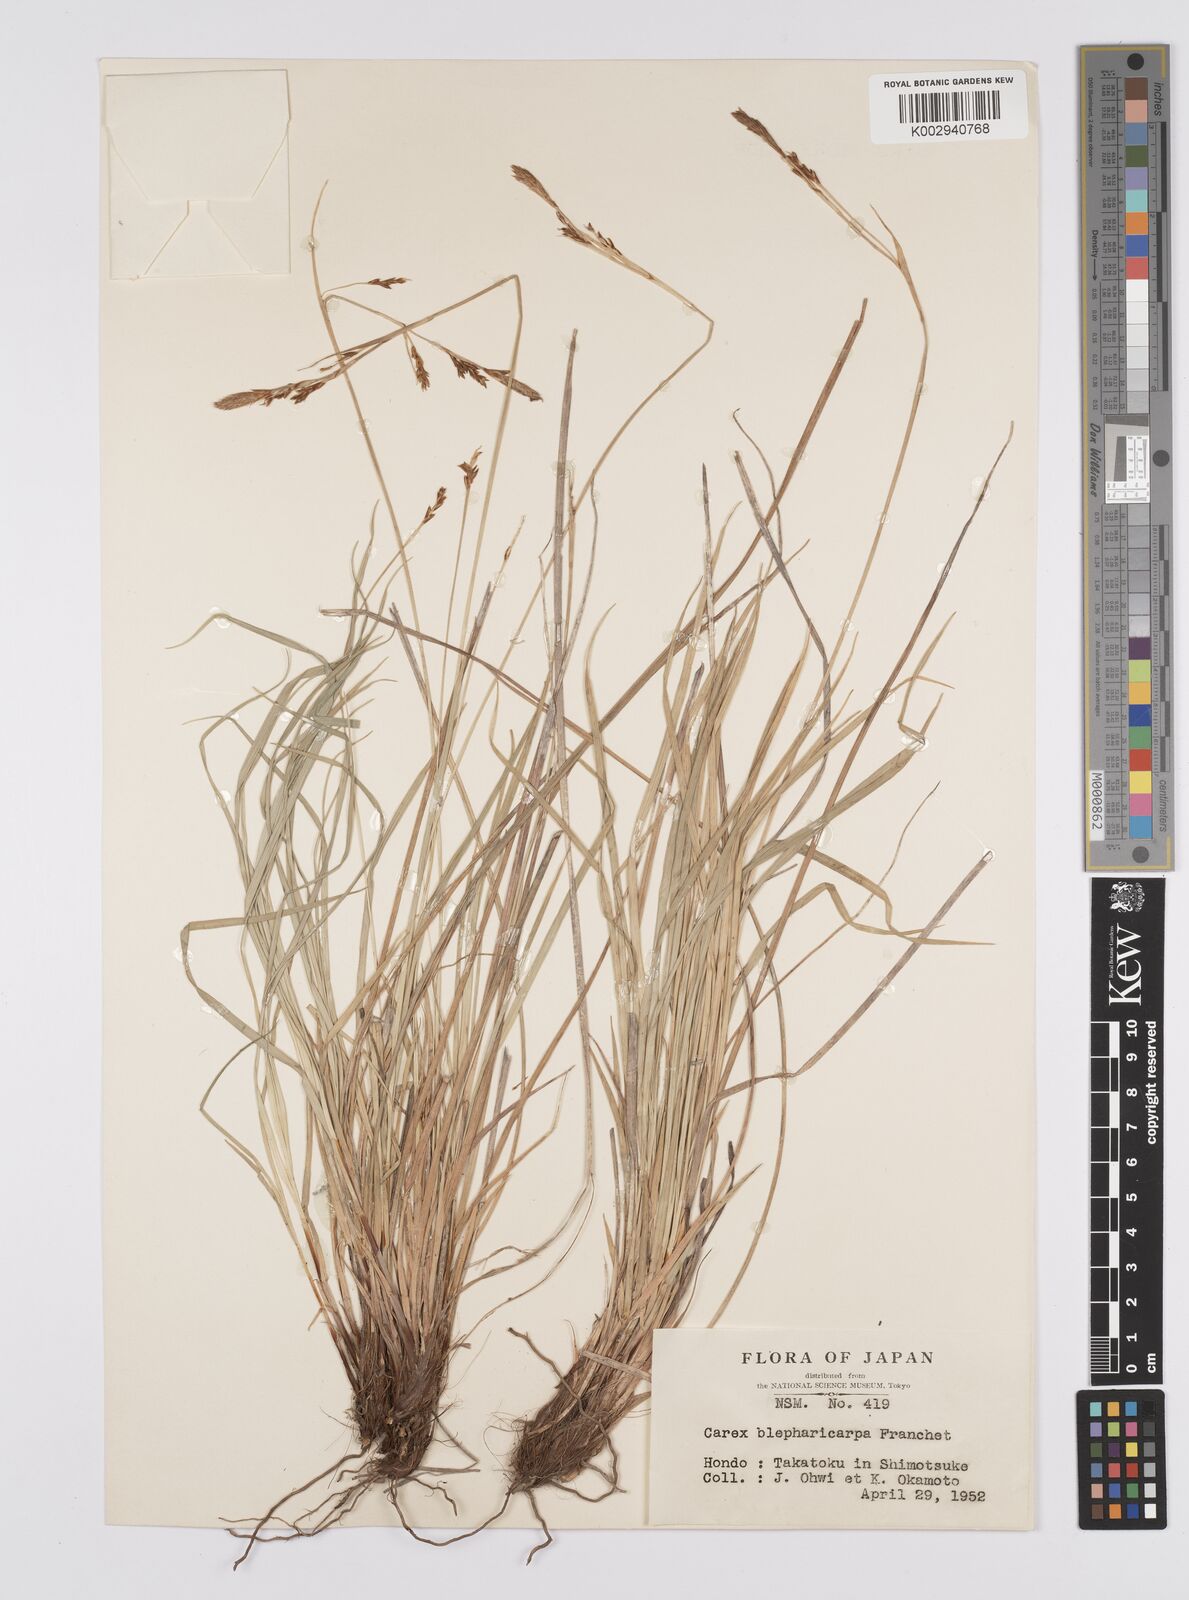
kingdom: Plantae
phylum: Tracheophyta
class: Liliopsida
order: Poales
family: Cyperaceae
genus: Carex
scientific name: Carex blepharicarpa
